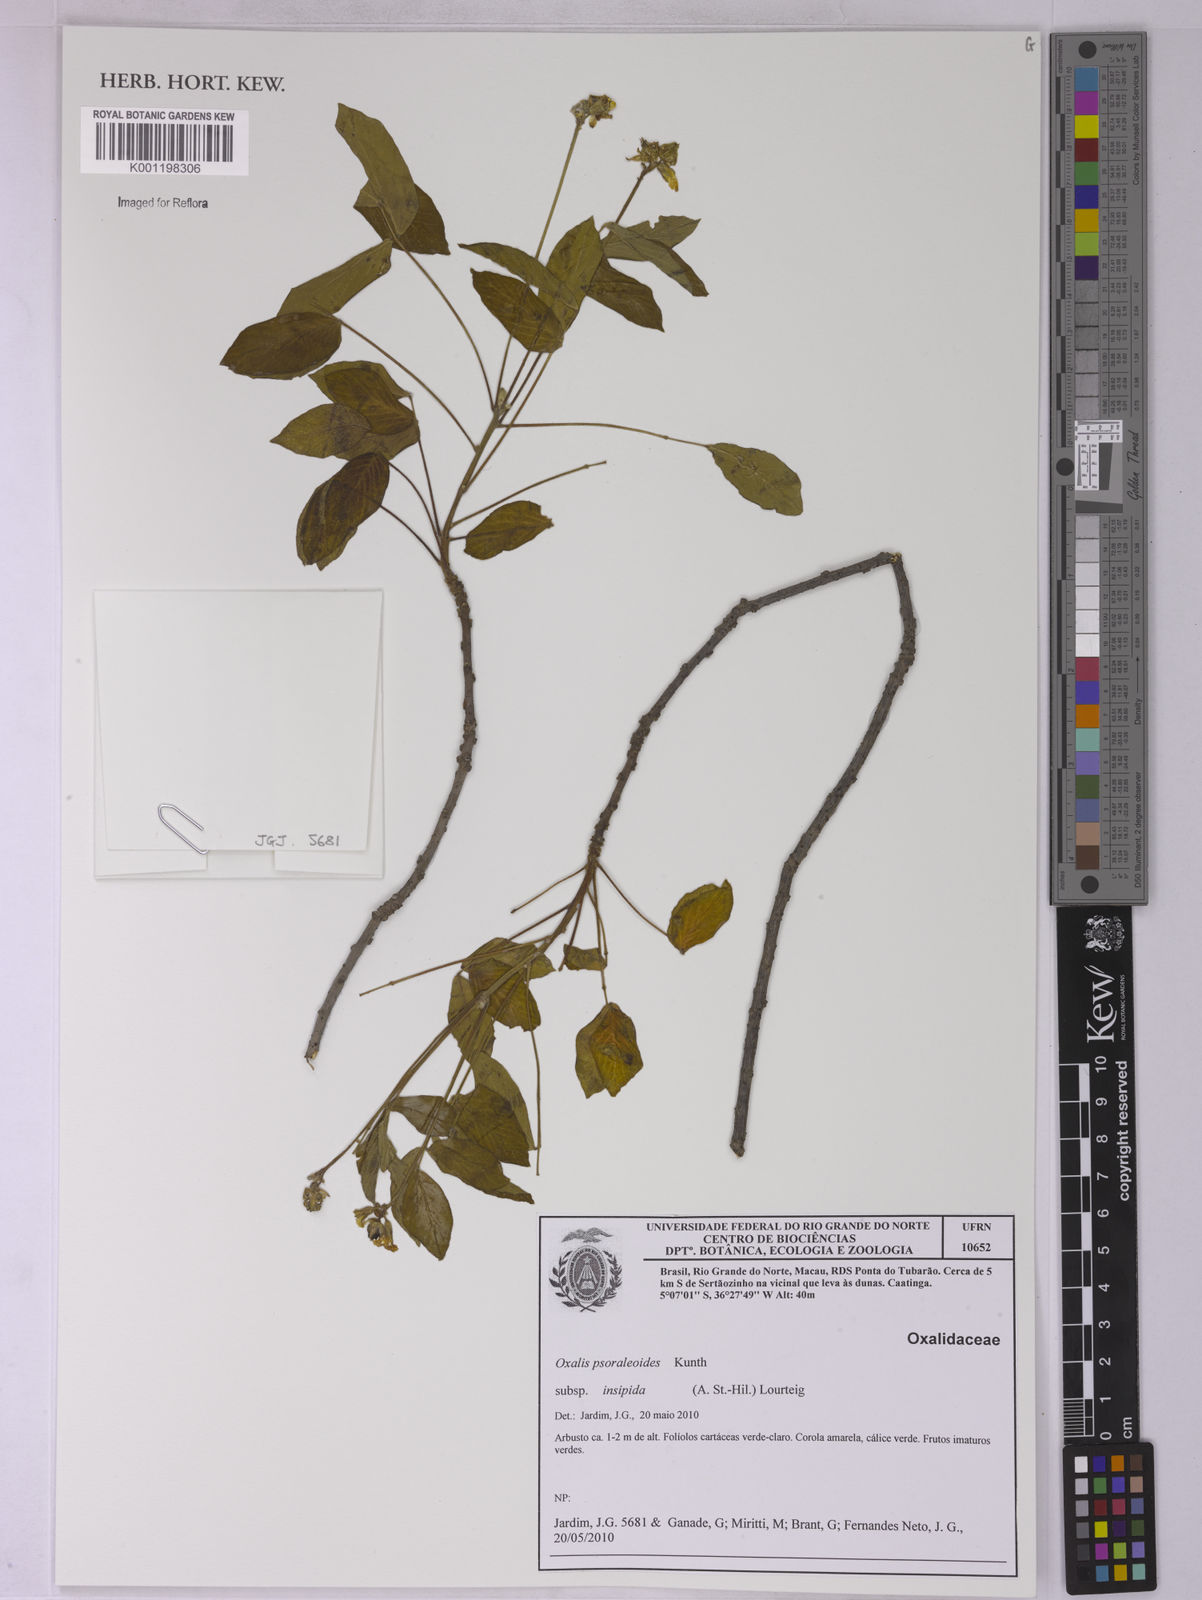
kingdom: Plantae
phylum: Tracheophyta
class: Magnoliopsida
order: Oxalidales
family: Oxalidaceae
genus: Oxalis
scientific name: Oxalis psoraleoides
